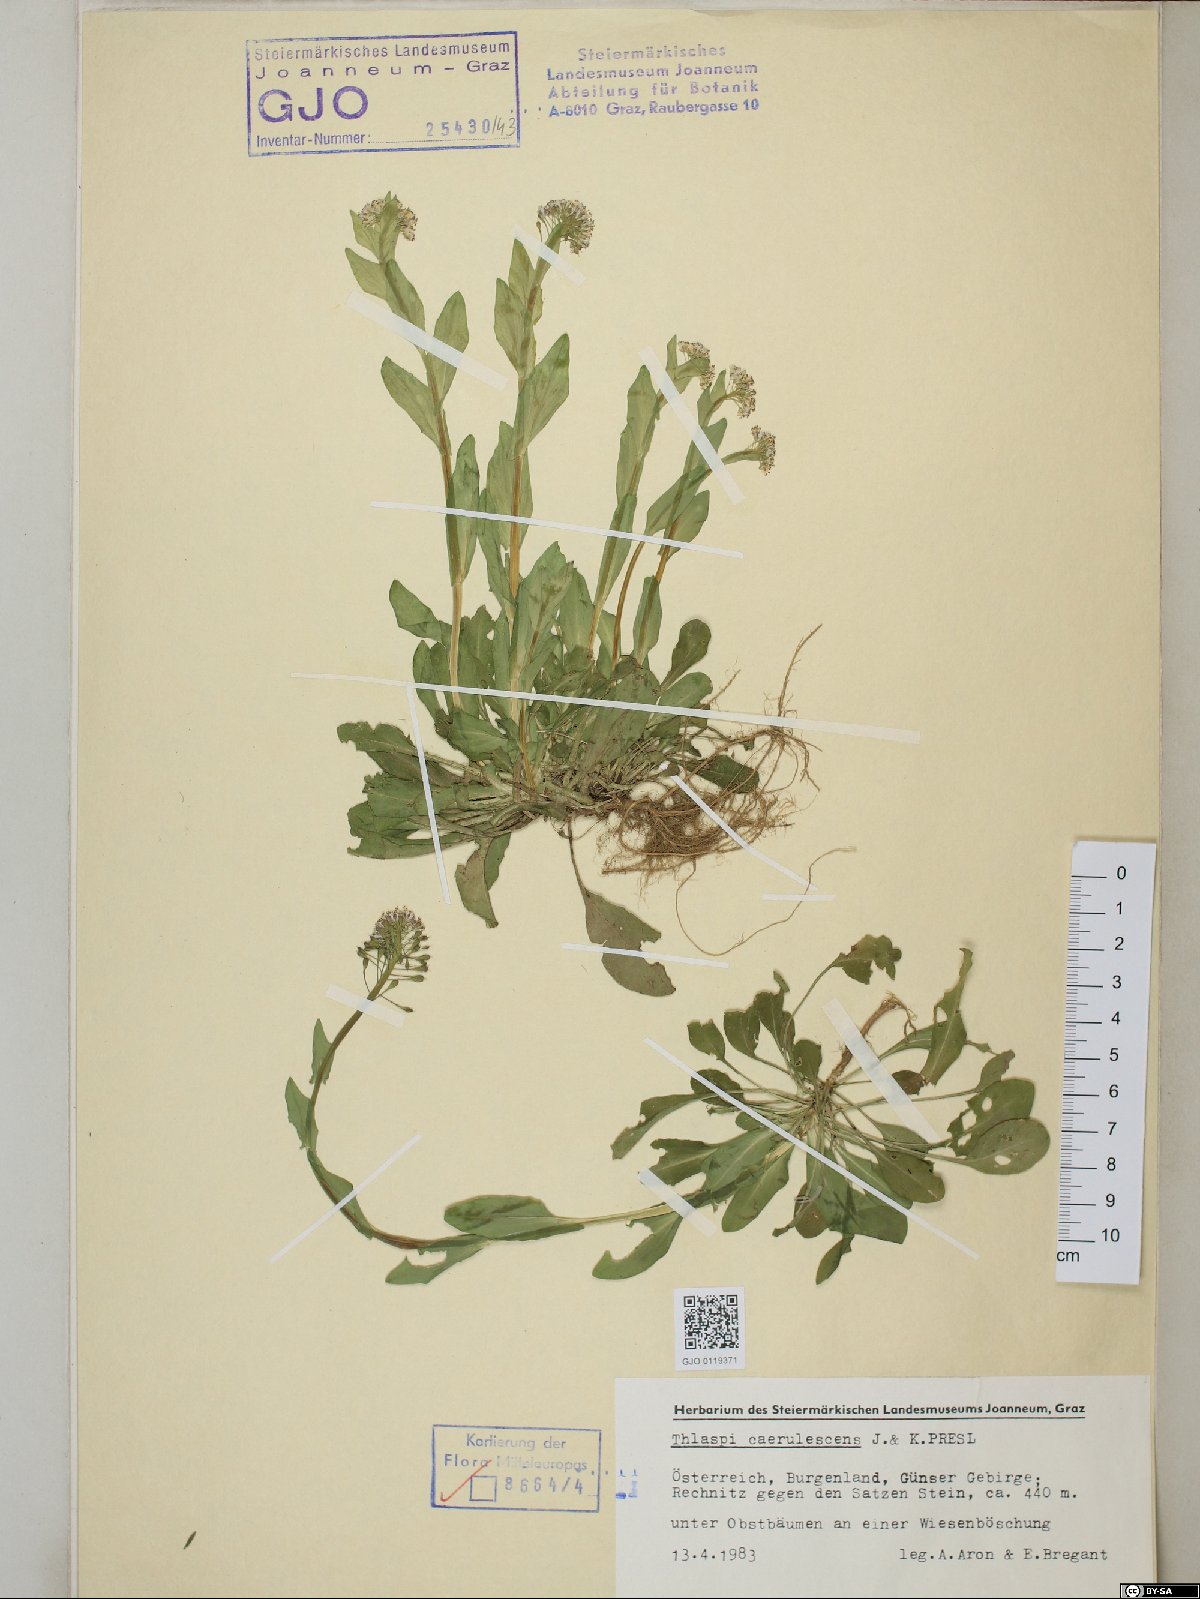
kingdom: Plantae
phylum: Tracheophyta
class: Magnoliopsida
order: Brassicales
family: Brassicaceae
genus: Noccaea
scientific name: Noccaea caerulescens
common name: Alpine pennycress
